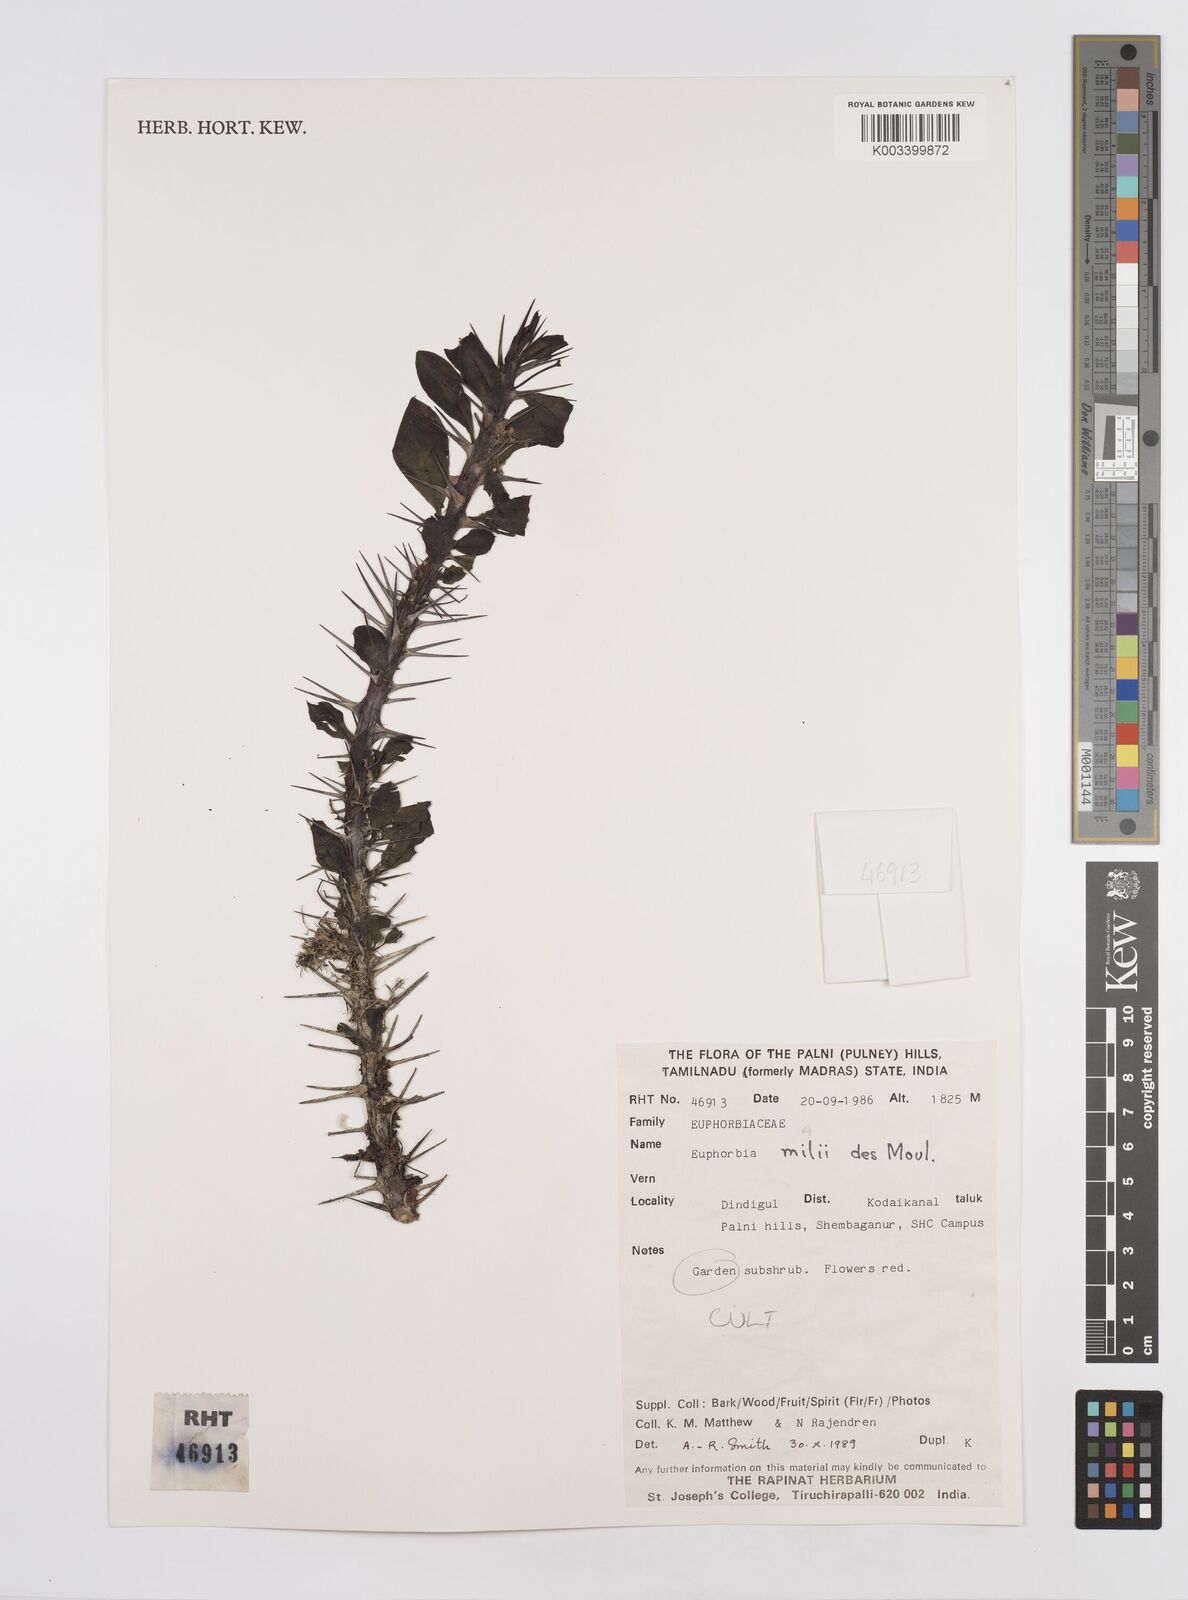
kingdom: Plantae
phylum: Tracheophyta
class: Magnoliopsida
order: Malpighiales
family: Euphorbiaceae
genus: Euphorbia
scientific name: Euphorbia milii
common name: Christplant
